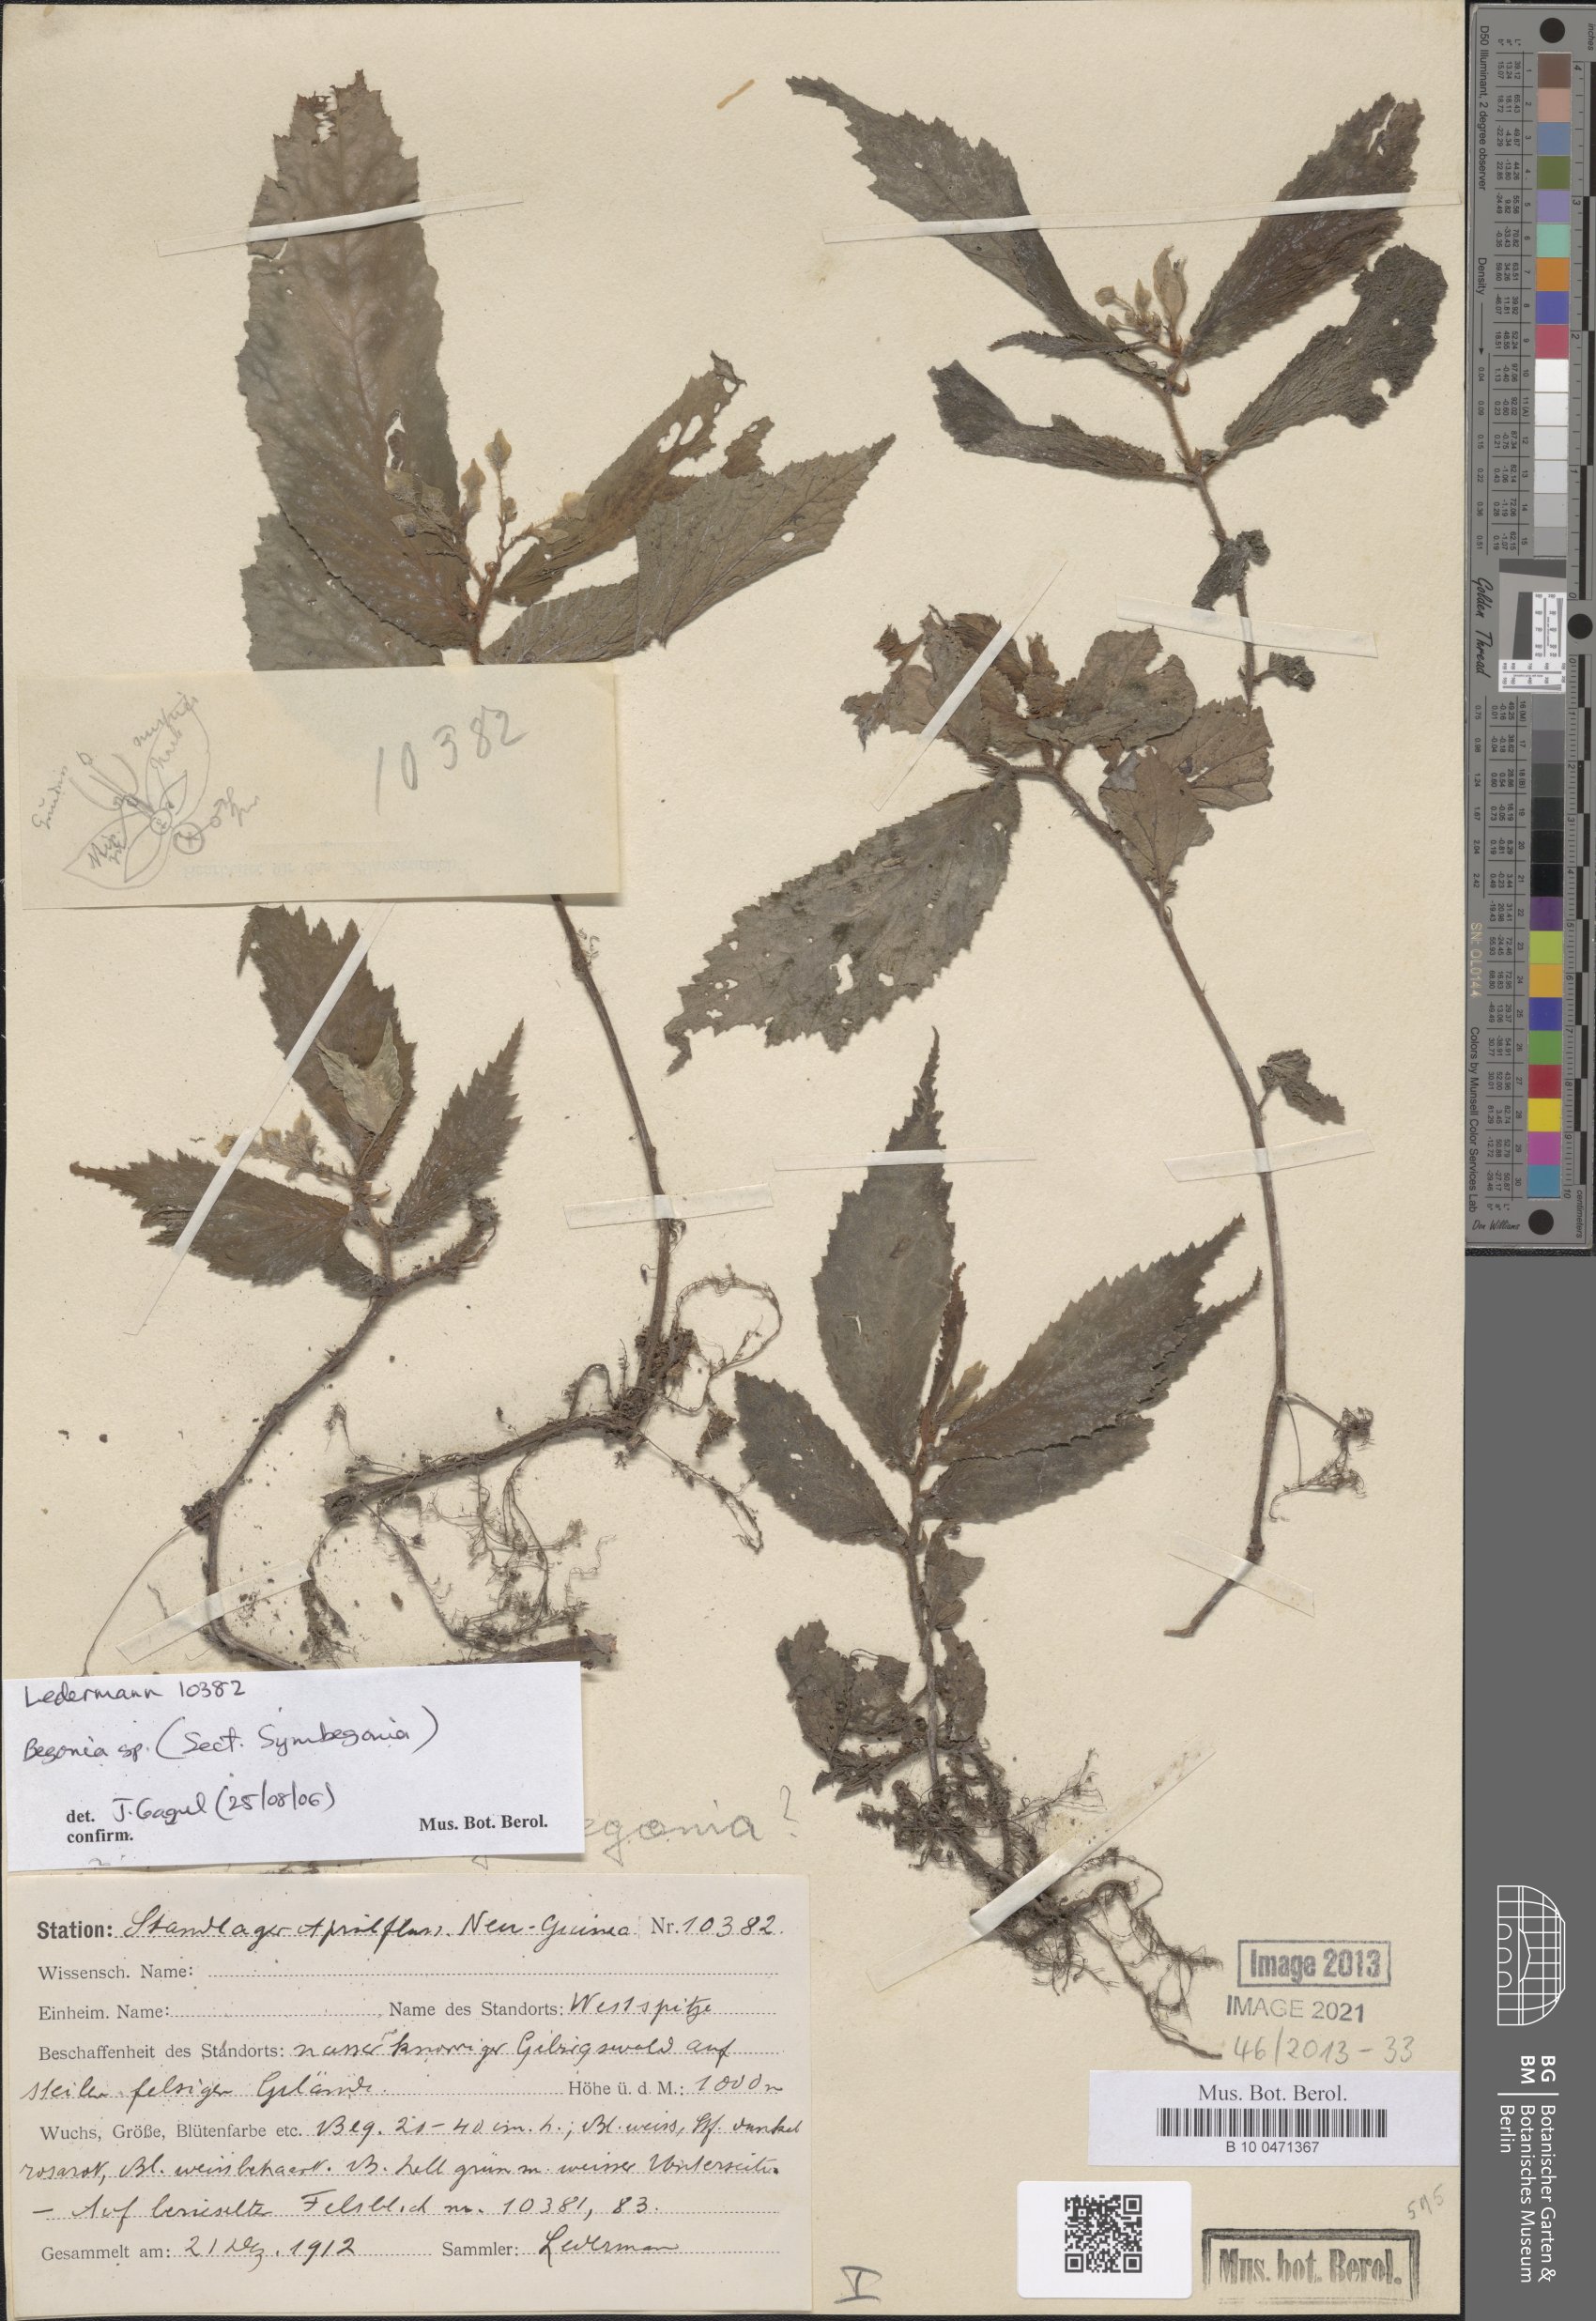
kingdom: Plantae
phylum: Tracheophyta
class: Magnoliopsida
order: Cucurbitales
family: Begoniaceae
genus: Begonia
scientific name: Begonia
